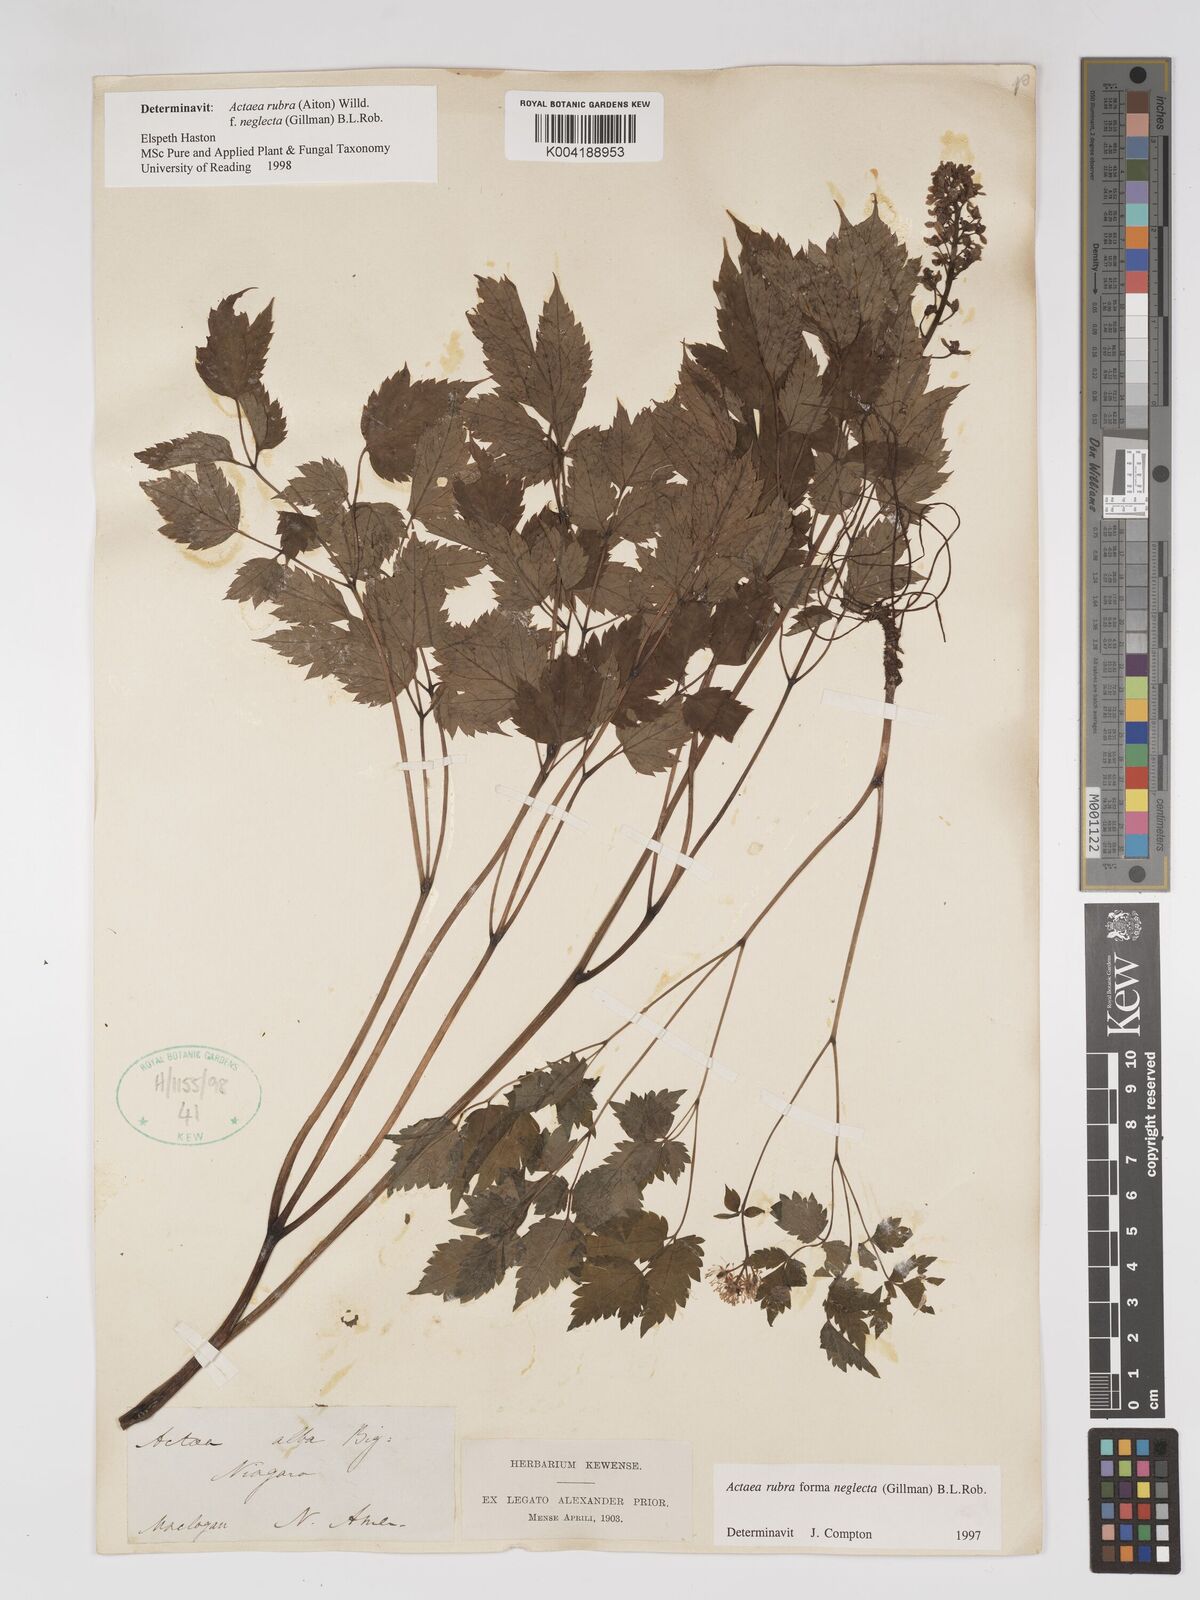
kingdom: Plantae
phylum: Tracheophyta
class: Magnoliopsida
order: Ranunculales
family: Ranunculaceae
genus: Actaea
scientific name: Actaea rubra
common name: Red baneberry
